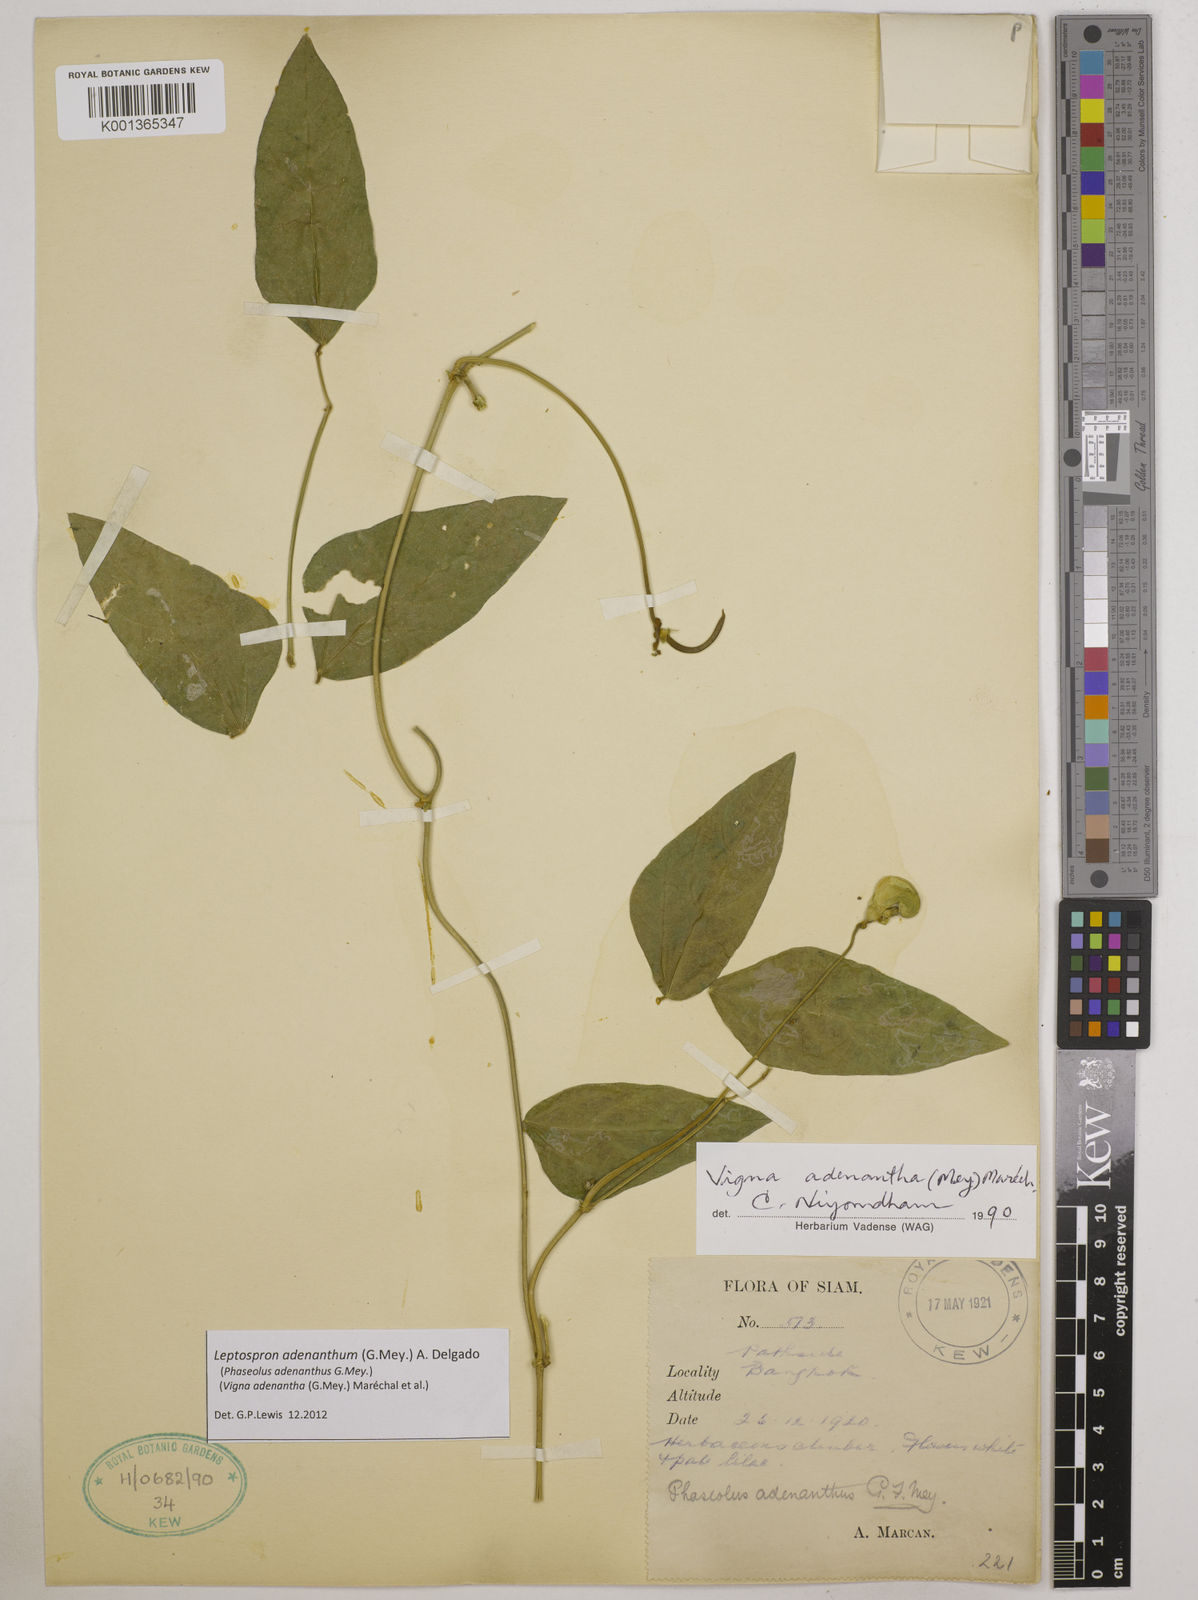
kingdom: Plantae
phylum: Tracheophyta
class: Magnoliopsida
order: Fabales
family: Fabaceae
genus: Leptospron
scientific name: Leptospron adenanthum
